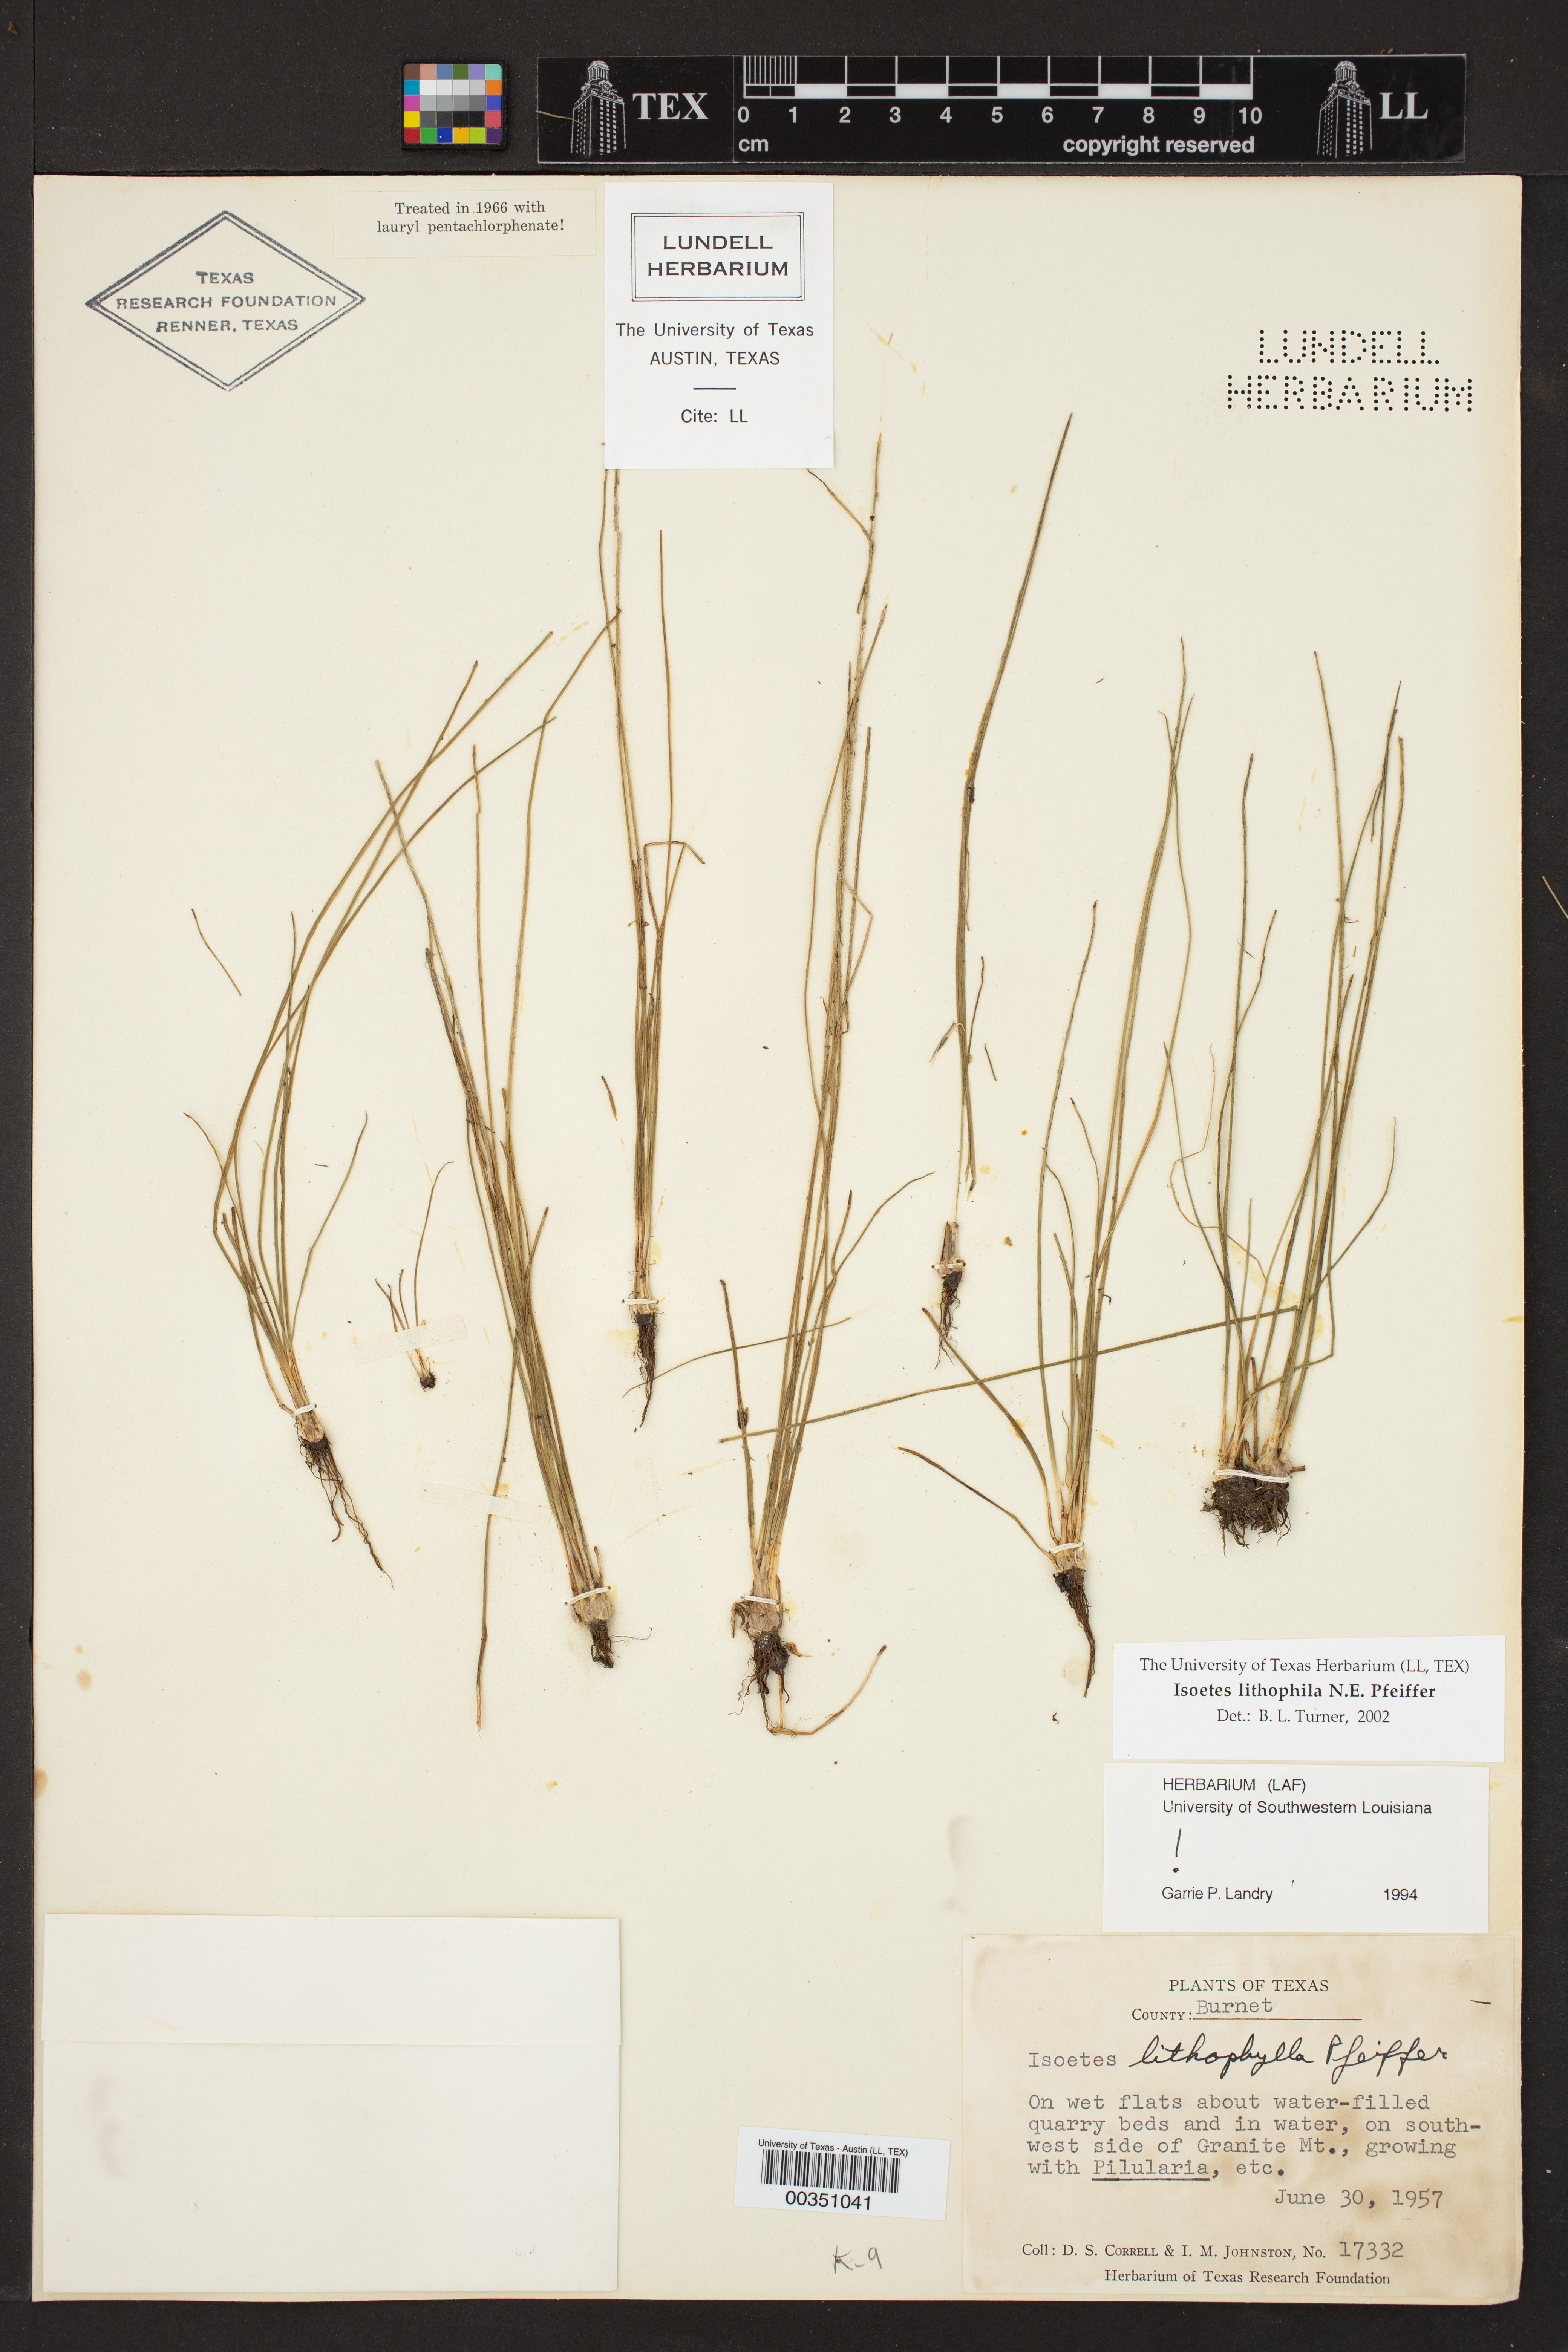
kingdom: Plantae
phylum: Tracheophyta
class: Lycopodiopsida
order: Isoetales
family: Isoetaceae
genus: Isoetes
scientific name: Isoetes lithophila
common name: Rock quillwort
